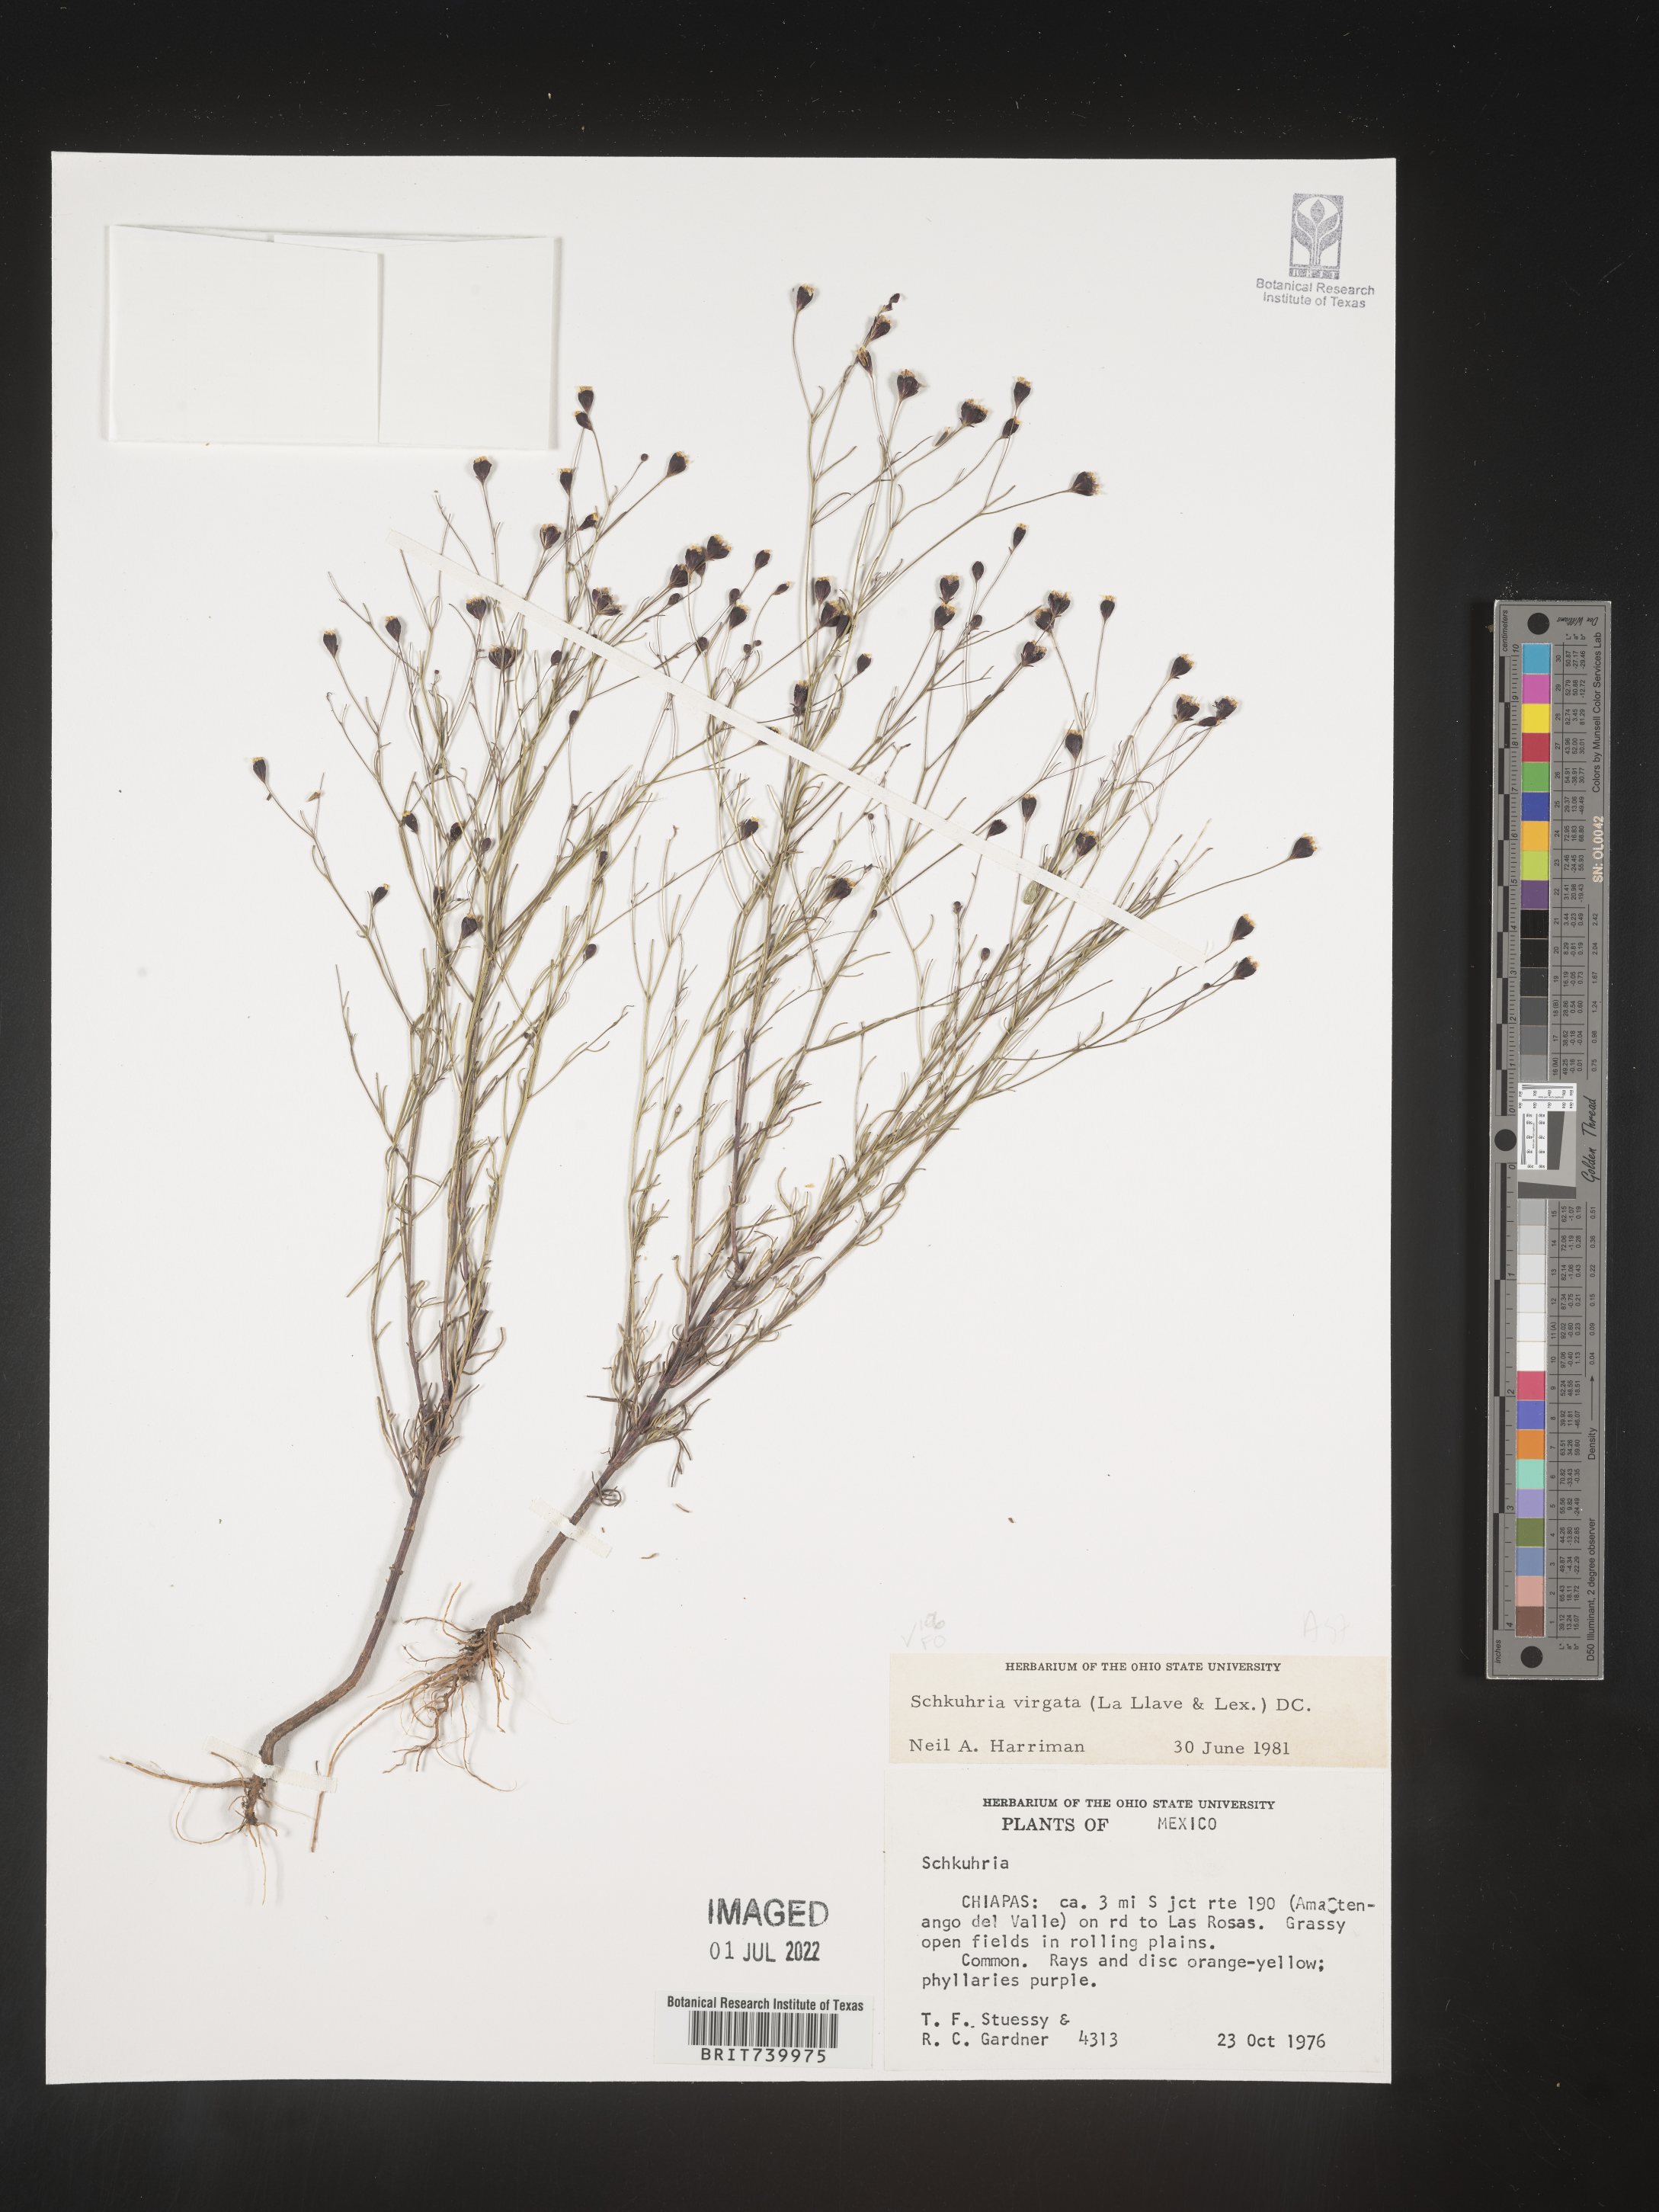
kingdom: Plantae
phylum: Tracheophyta
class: Magnoliopsida
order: Asterales
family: Asteraceae
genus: Schkuhria
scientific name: Schkuhria
